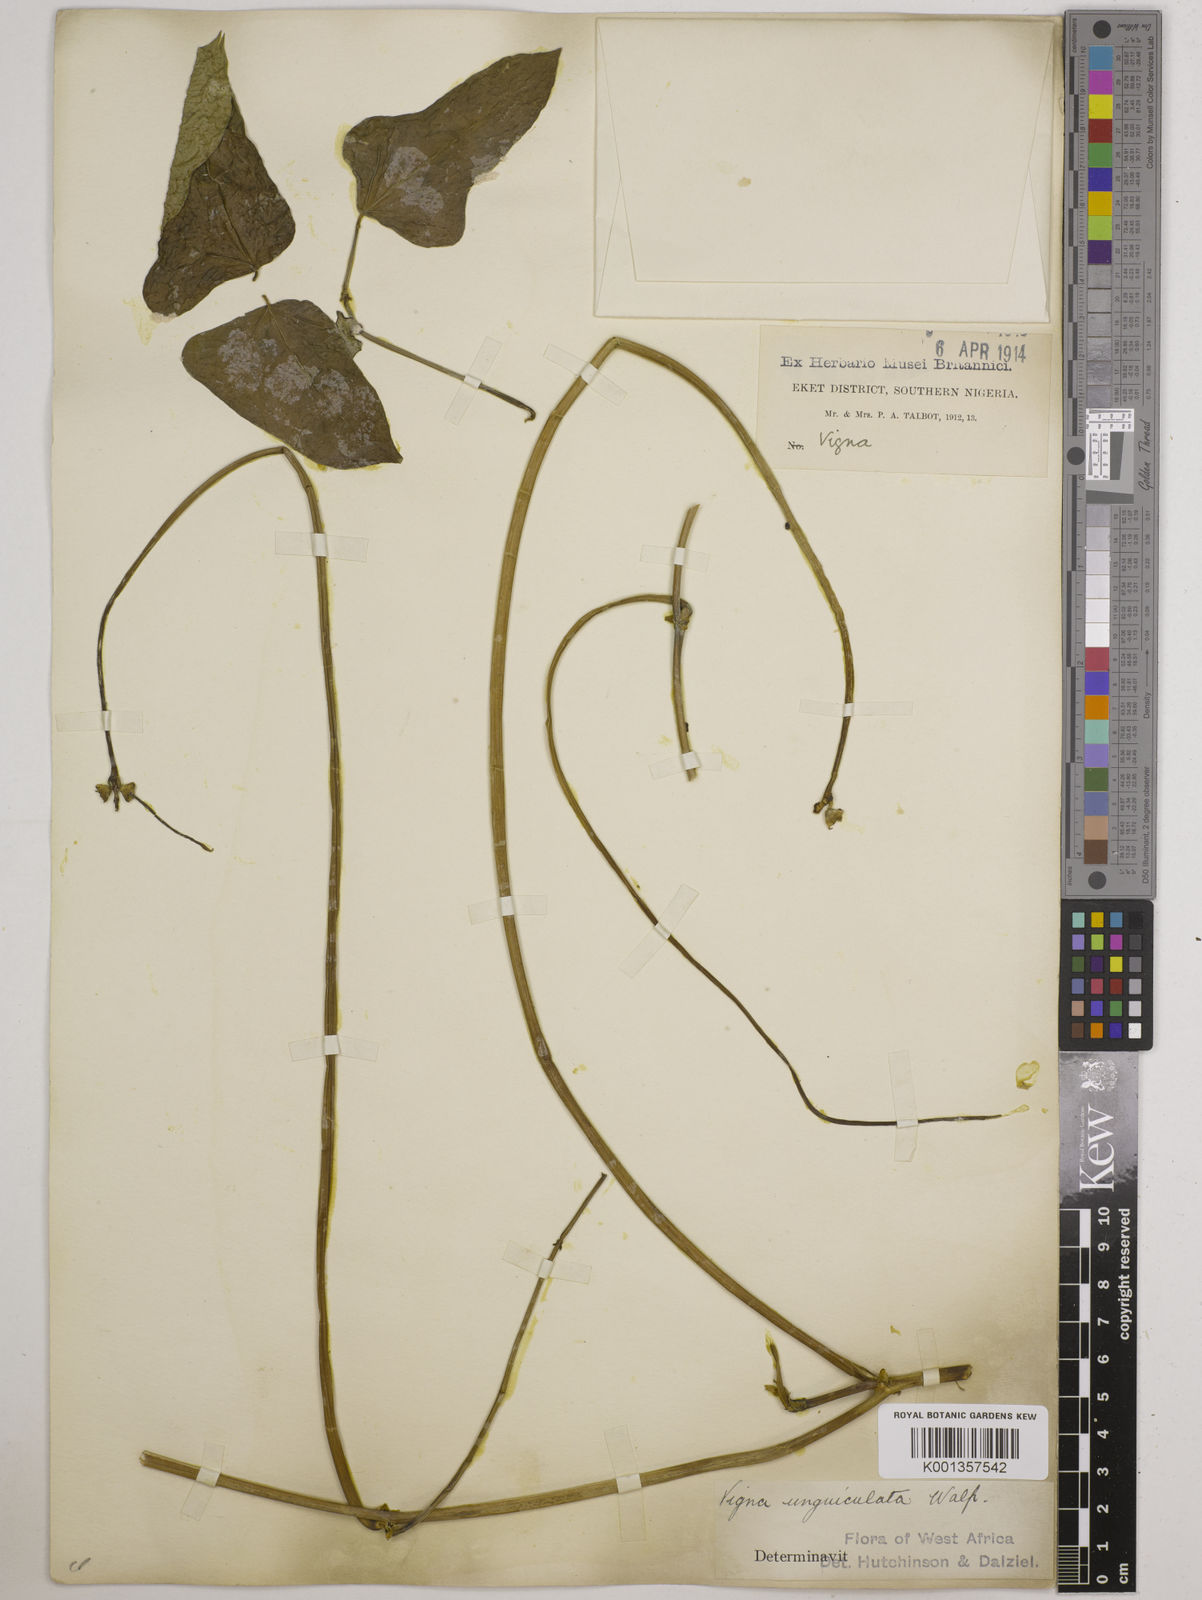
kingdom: Plantae
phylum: Tracheophyta
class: Magnoliopsida
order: Fabales
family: Fabaceae
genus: Vigna
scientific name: Vigna
